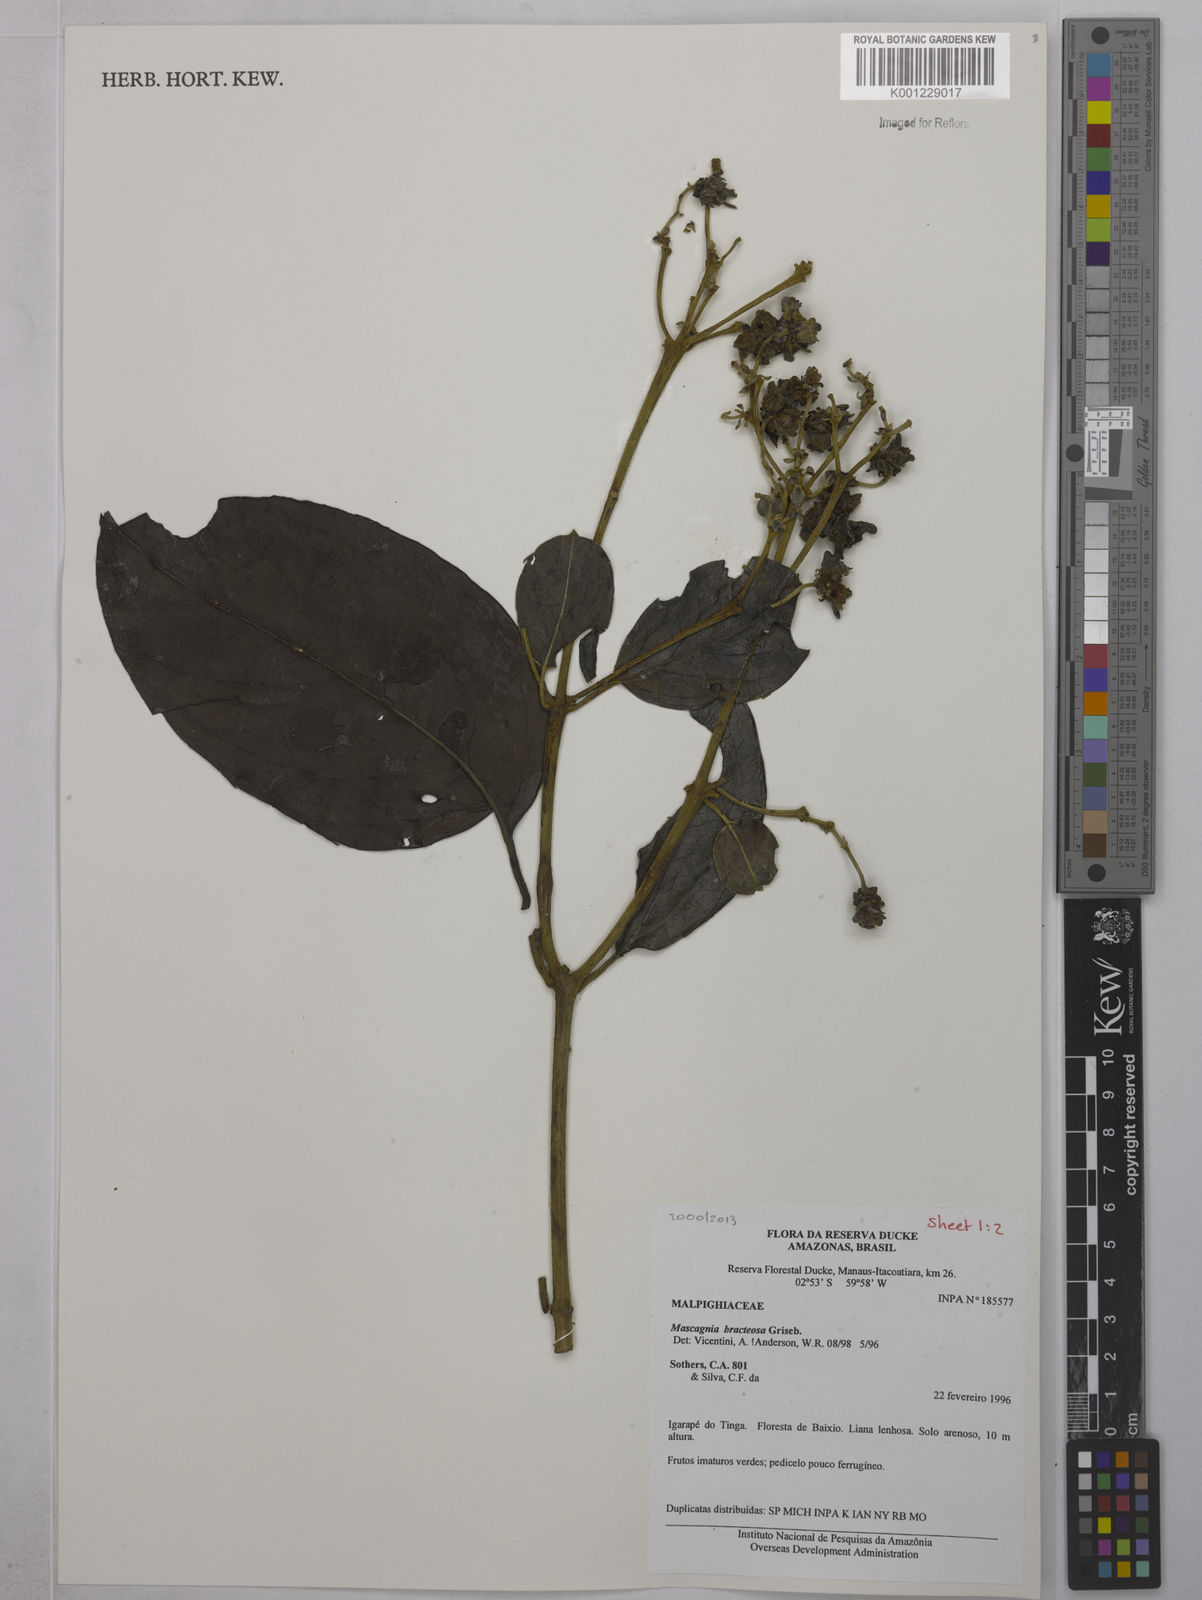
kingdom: Plantae
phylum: Tracheophyta
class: Magnoliopsida
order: Malpighiales
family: Malpighiaceae
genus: Malpighiodes
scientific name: Malpighiodes bracteosa
